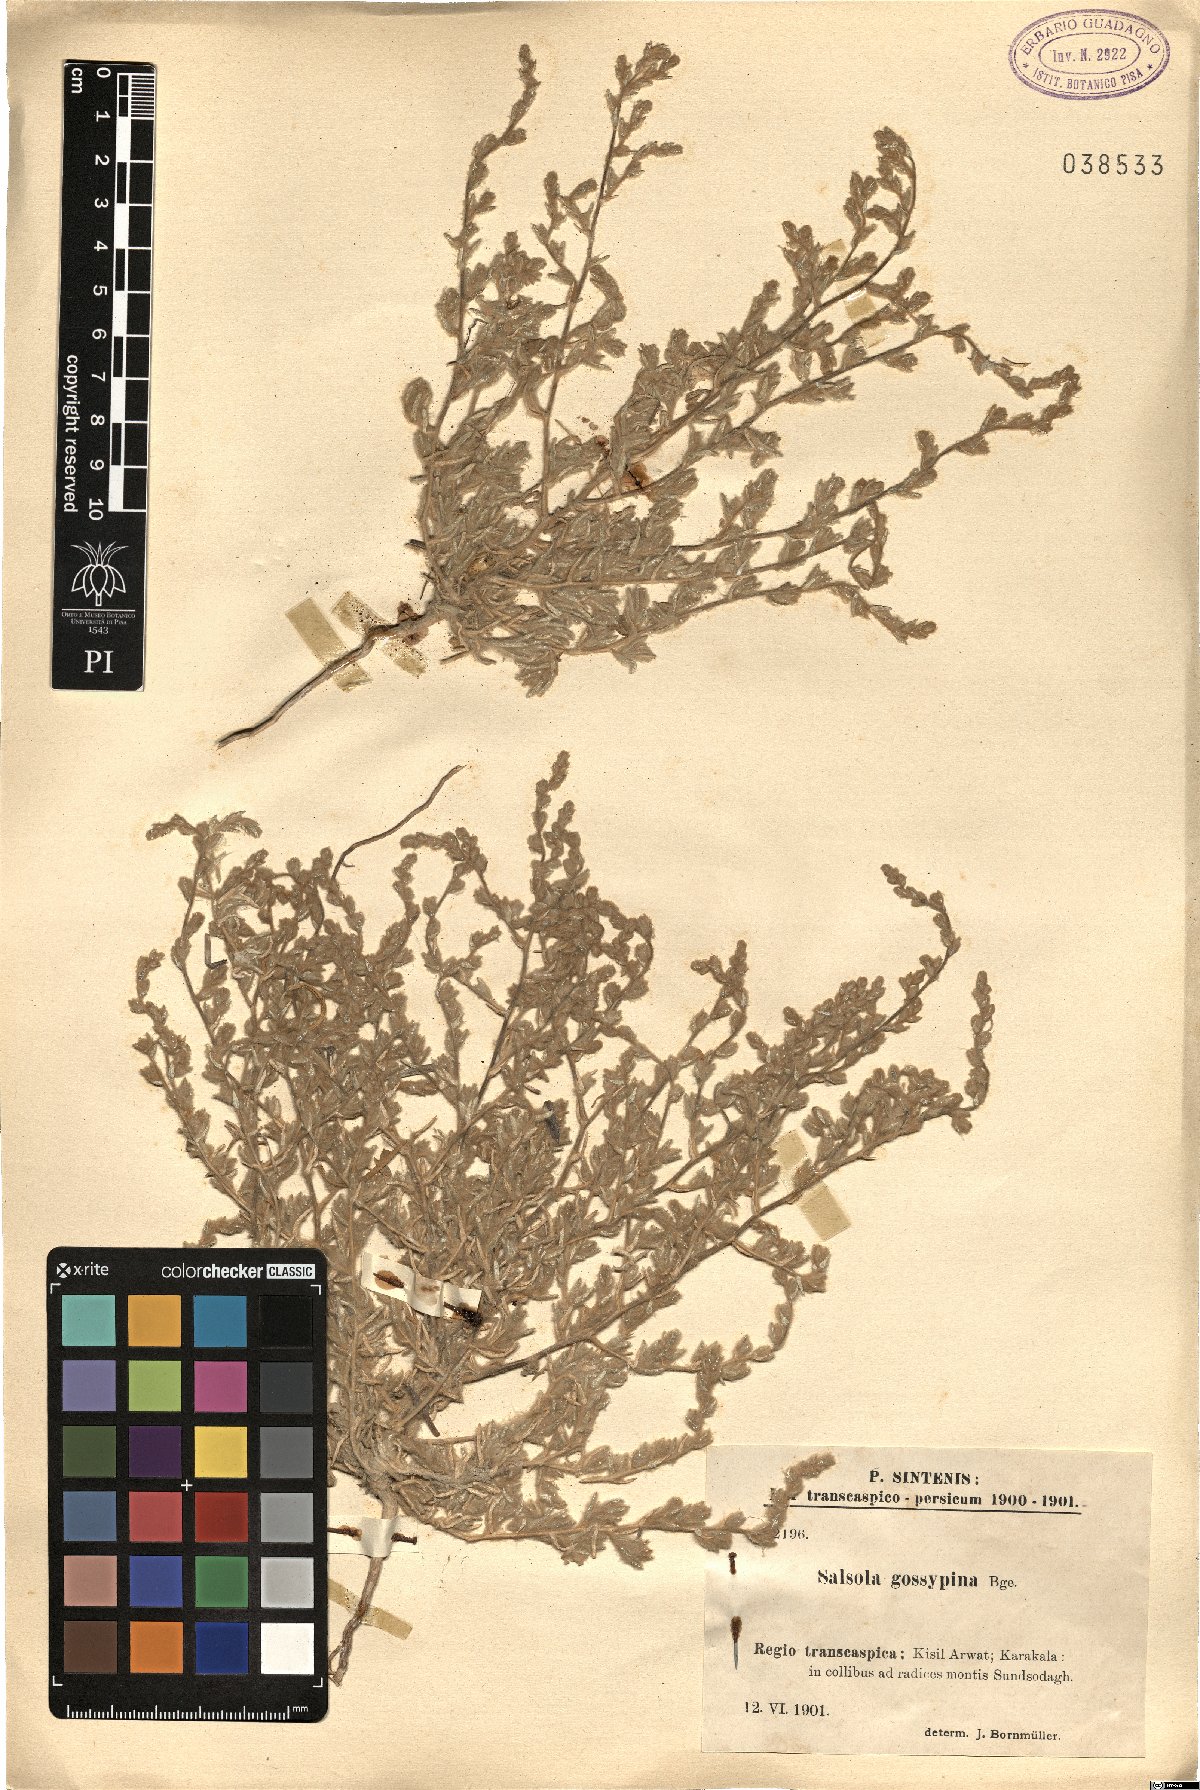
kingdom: Plantae
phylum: Tracheophyta
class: Magnoliopsida
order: Caryophyllales
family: Amaranthaceae
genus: Kaviria
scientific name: Kaviria gossypina
